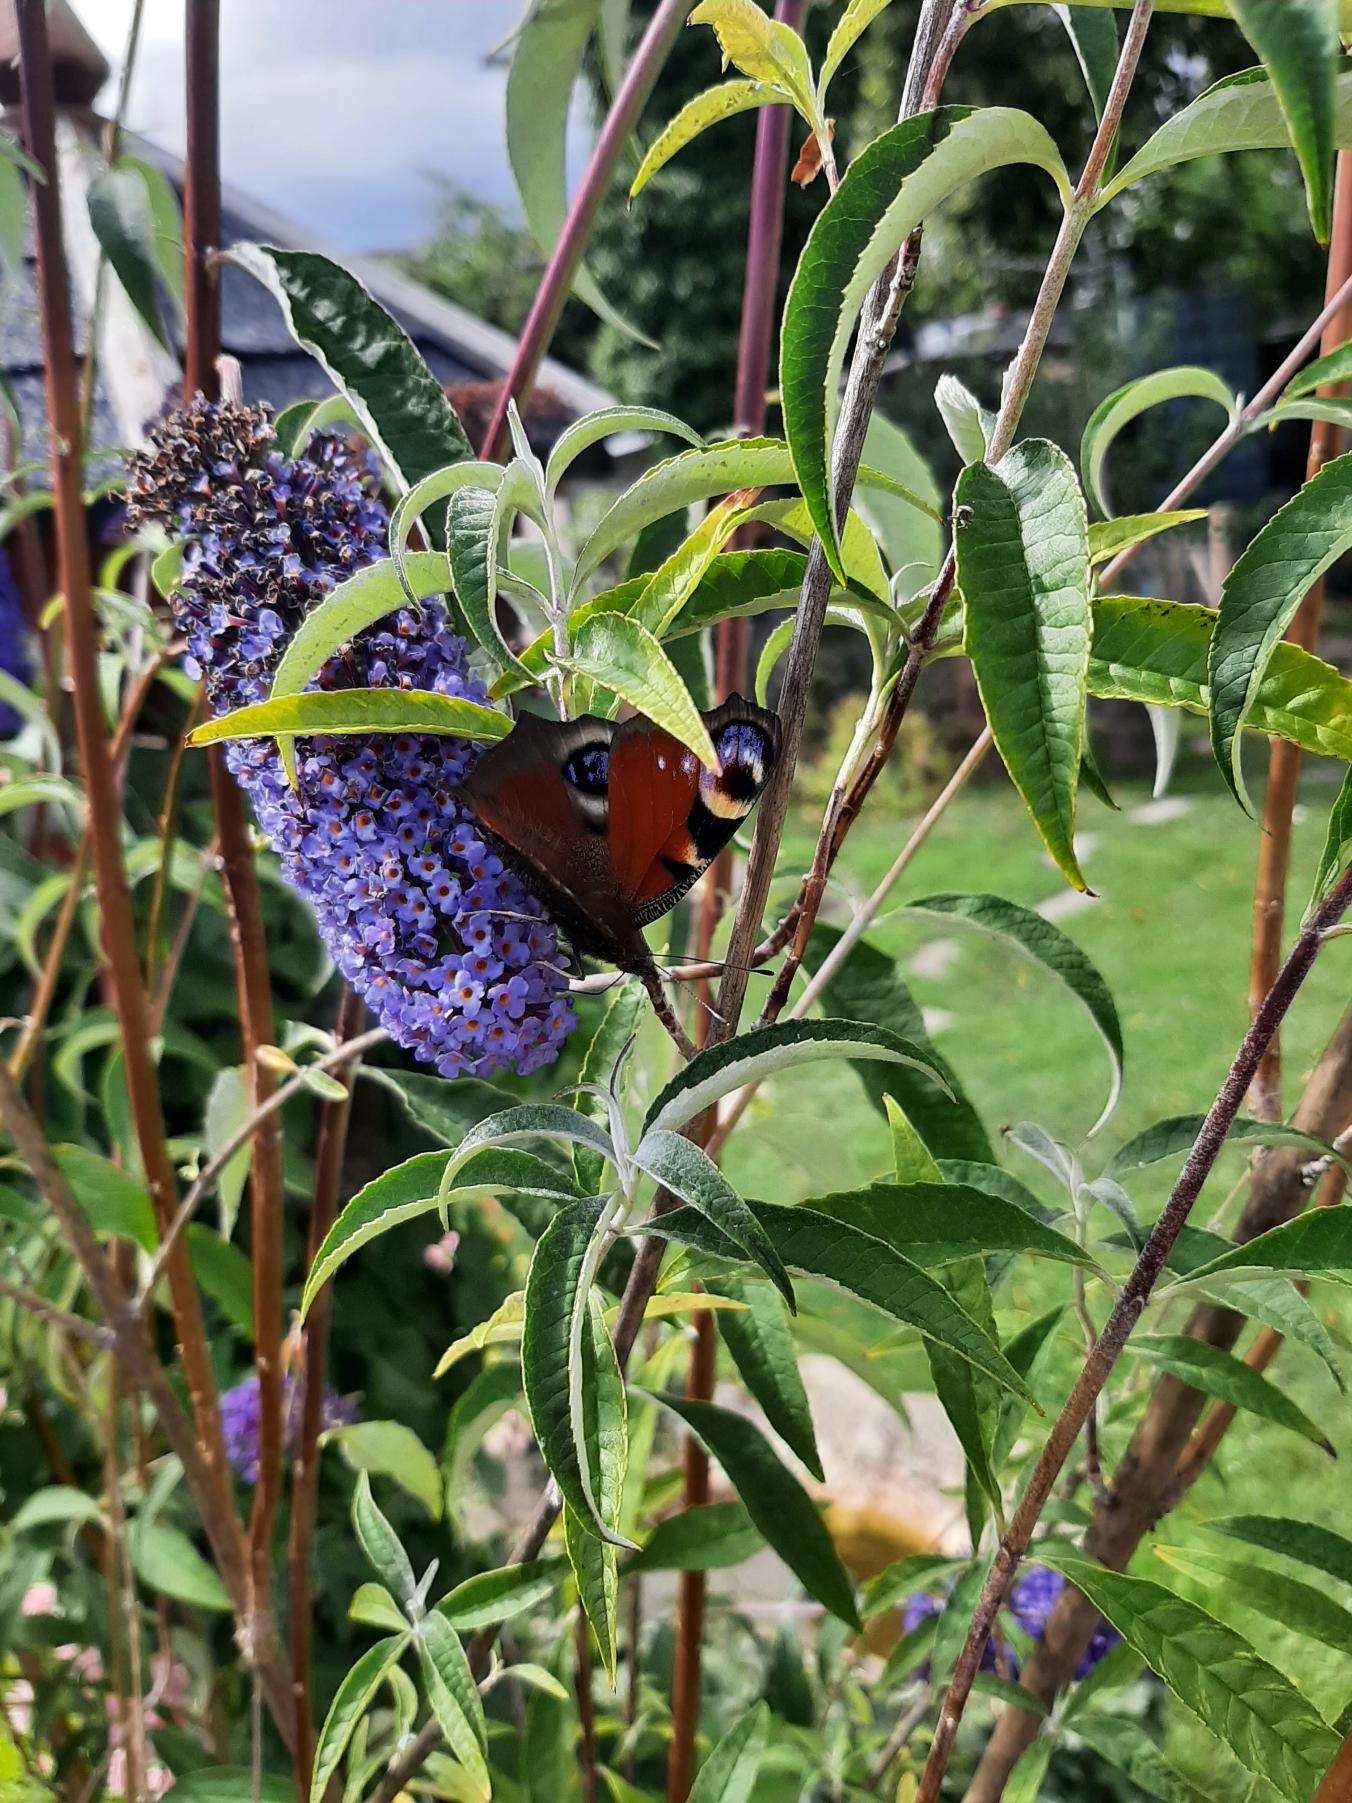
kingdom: Animalia
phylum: Arthropoda
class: Insecta
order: Lepidoptera
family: Nymphalidae
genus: Aglais
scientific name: Aglais io
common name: Dagpåfugleøje
